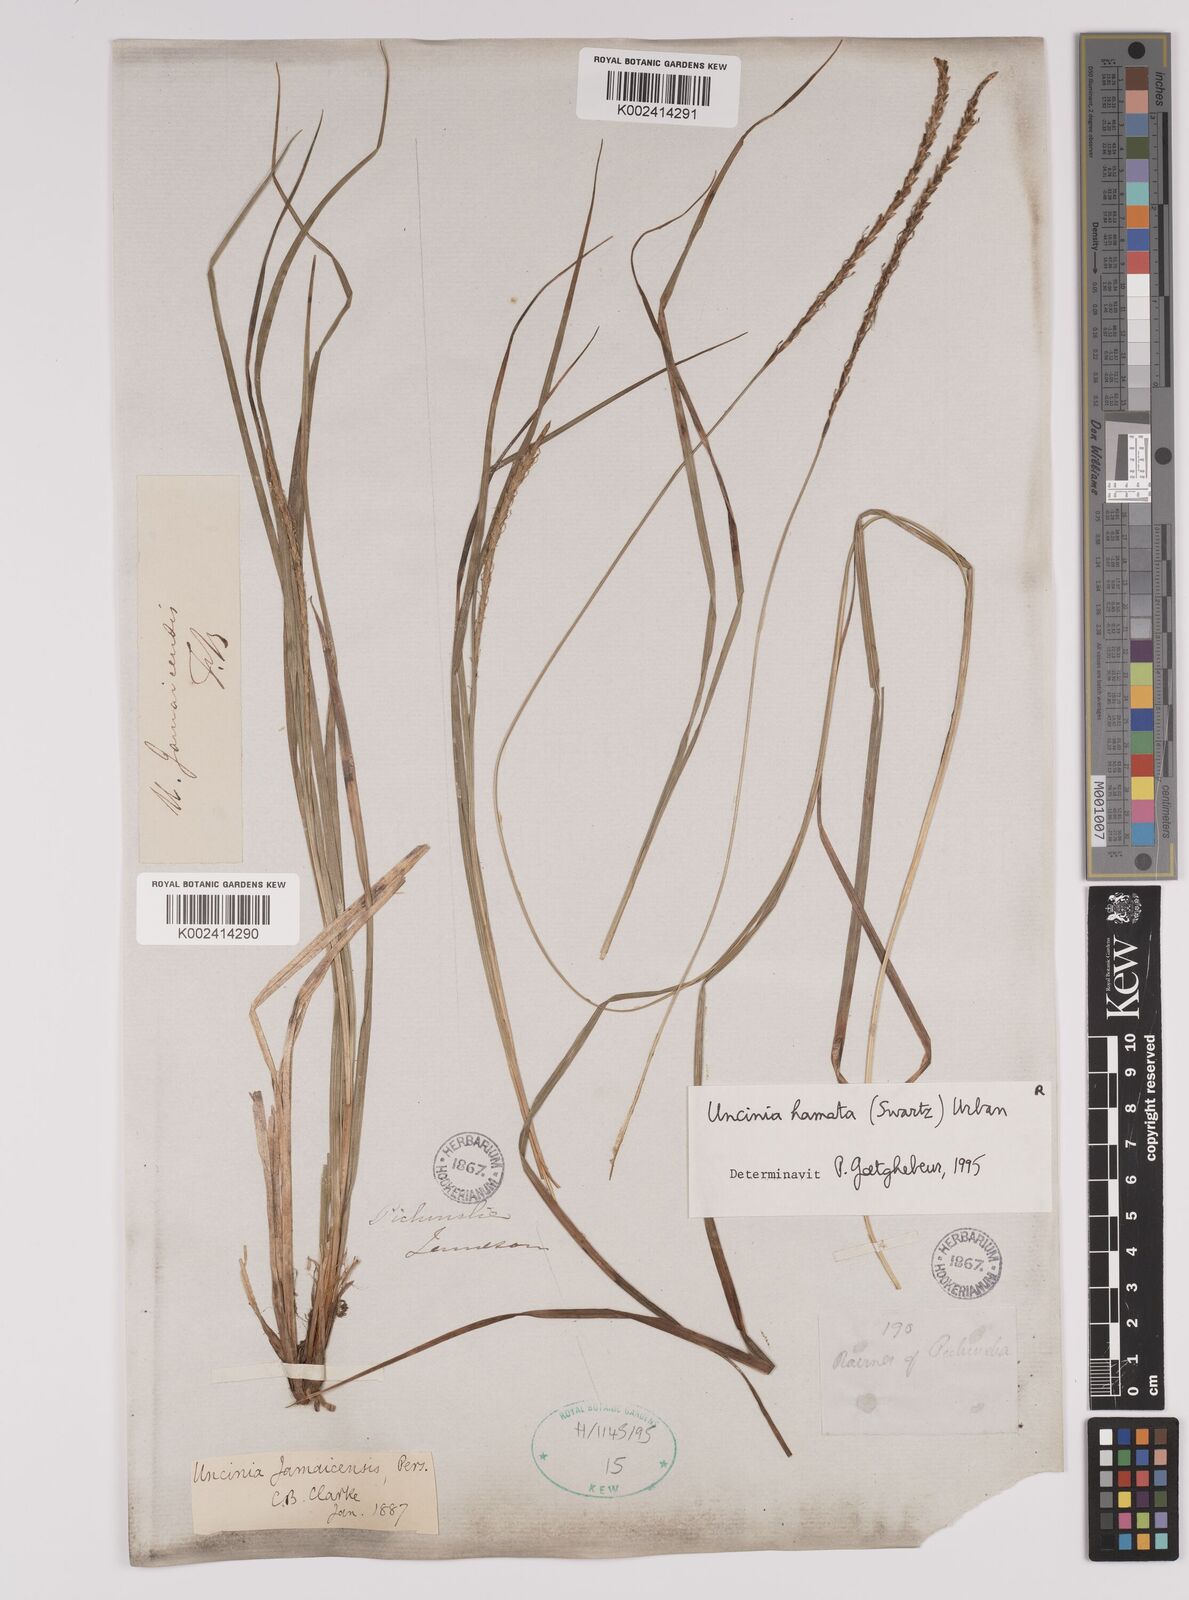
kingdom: Plantae
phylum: Tracheophyta
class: Liliopsida
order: Poales
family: Cyperaceae
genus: Carex
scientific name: Carex hamata
